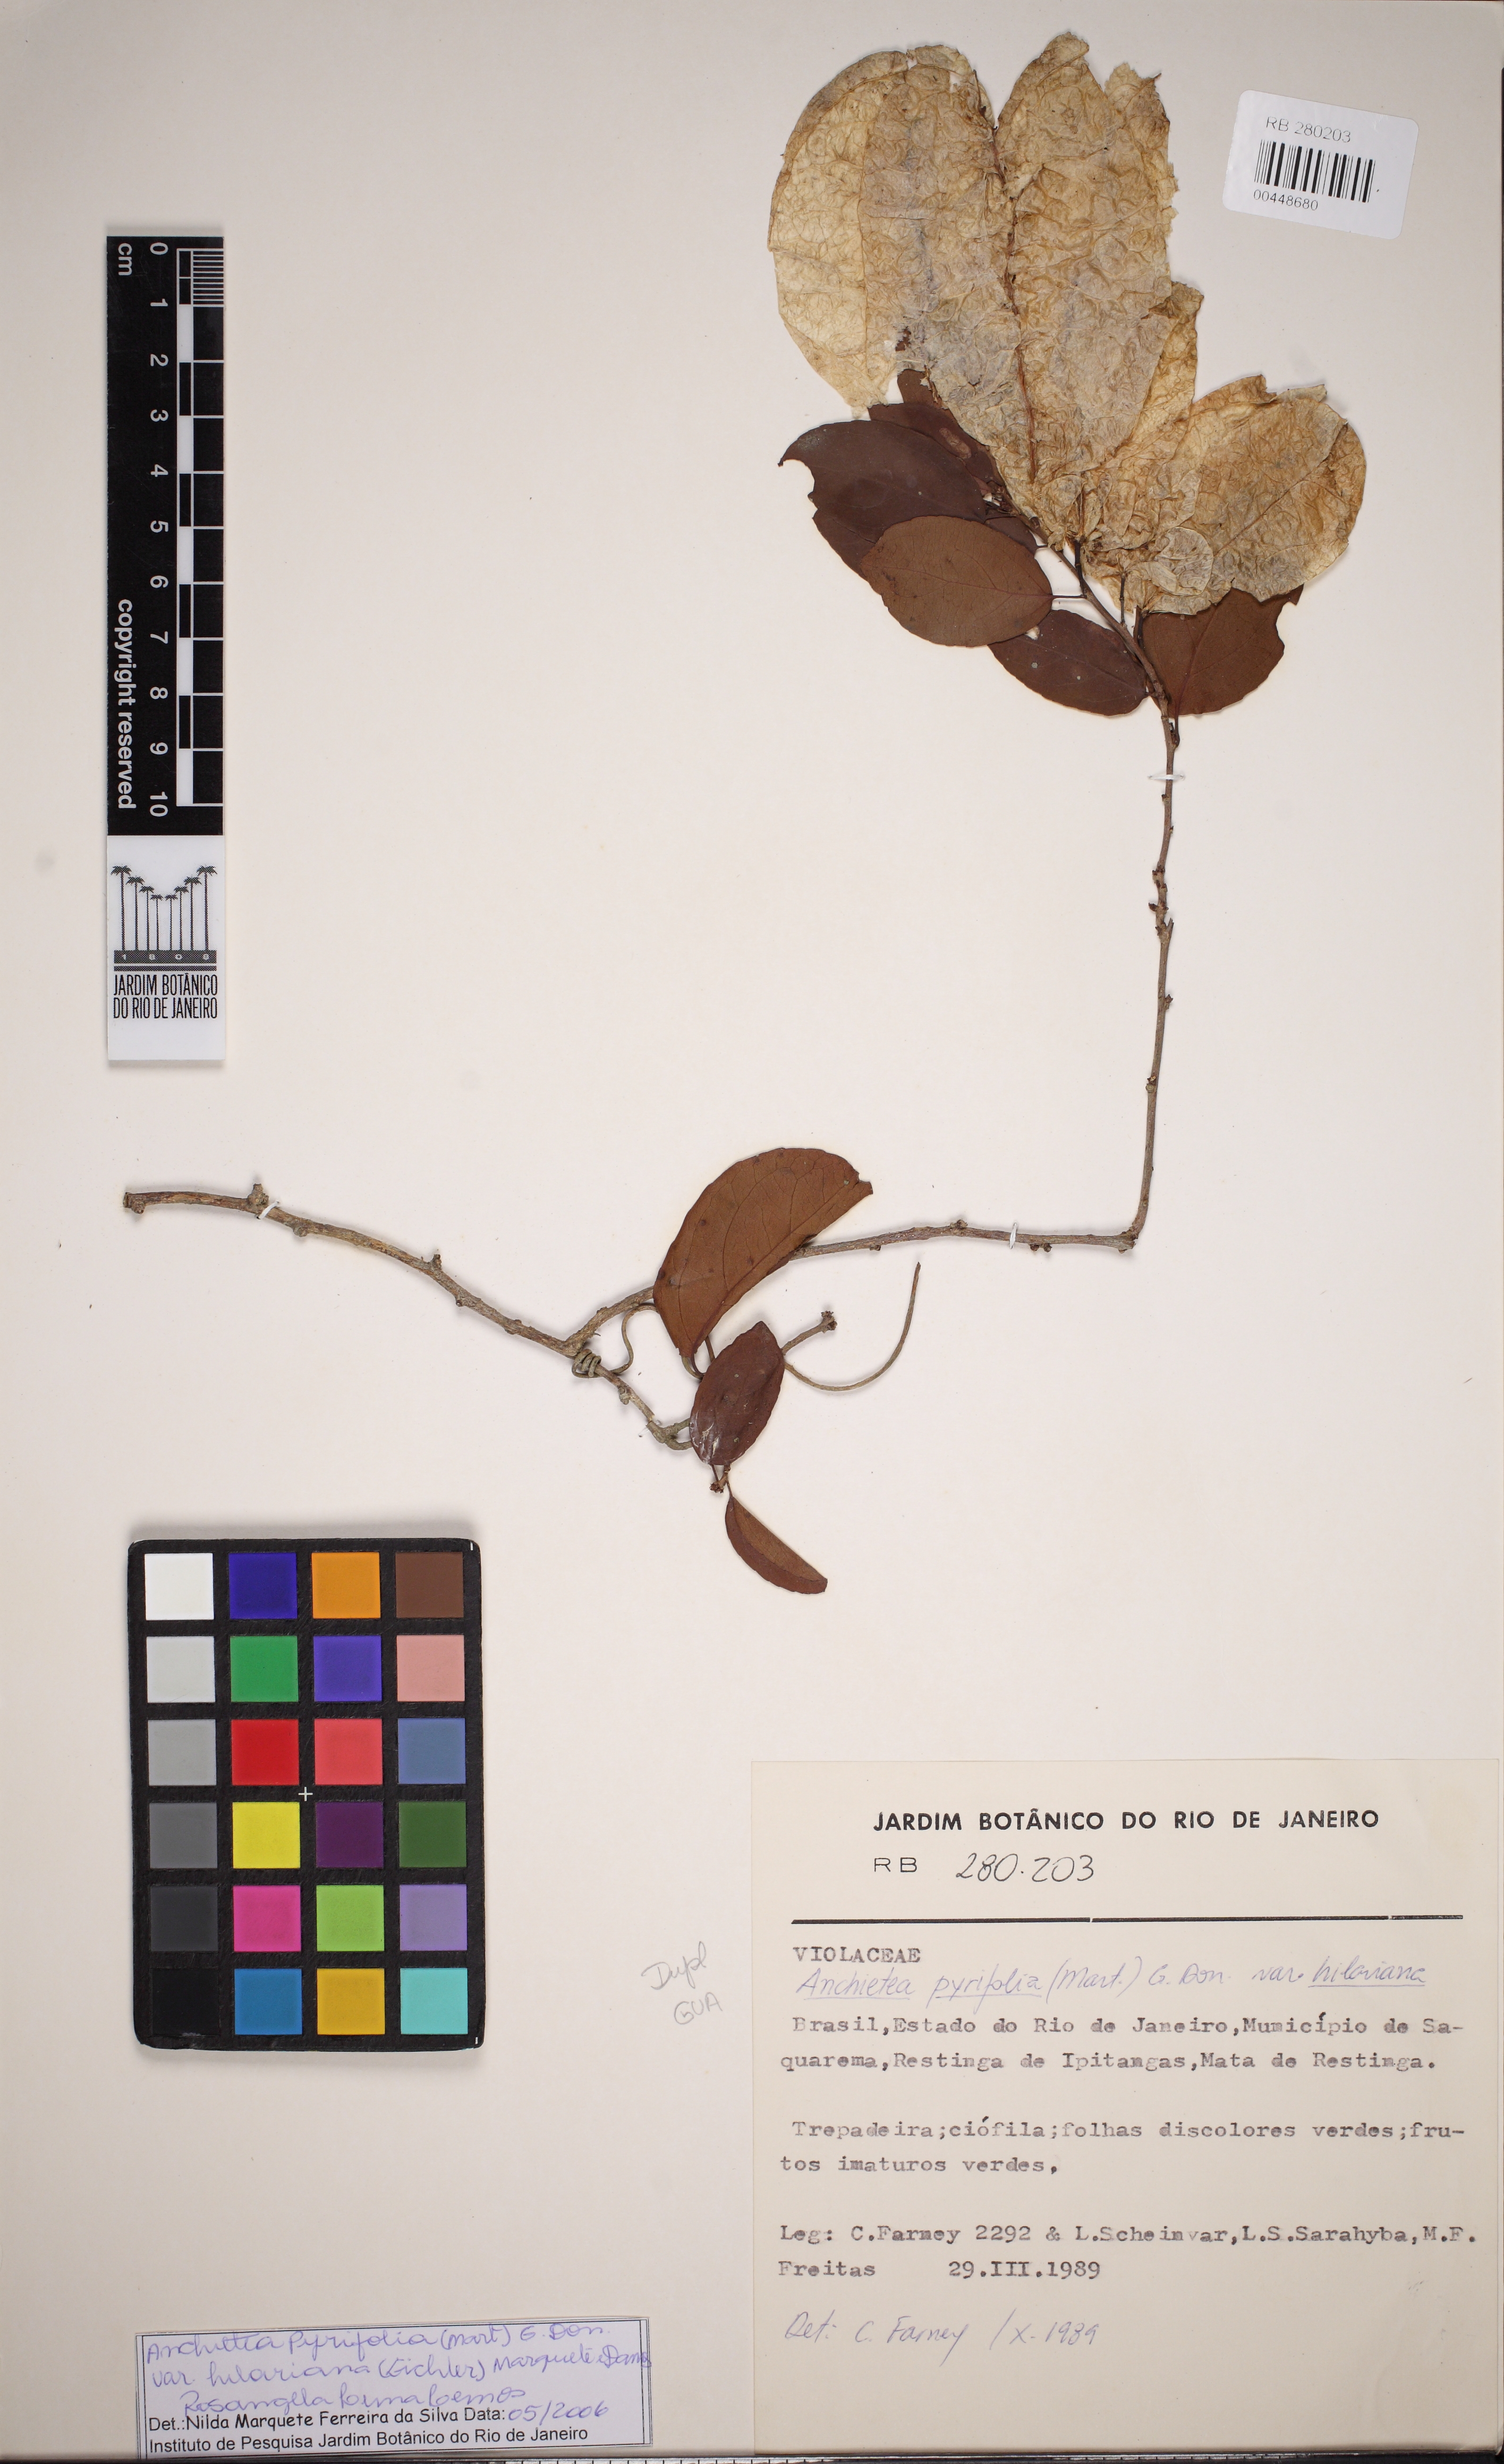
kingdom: Plantae
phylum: Tracheophyta
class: Magnoliopsida
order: Malpighiales
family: Violaceae
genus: Anchietea
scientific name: Anchietea pyrifolia
